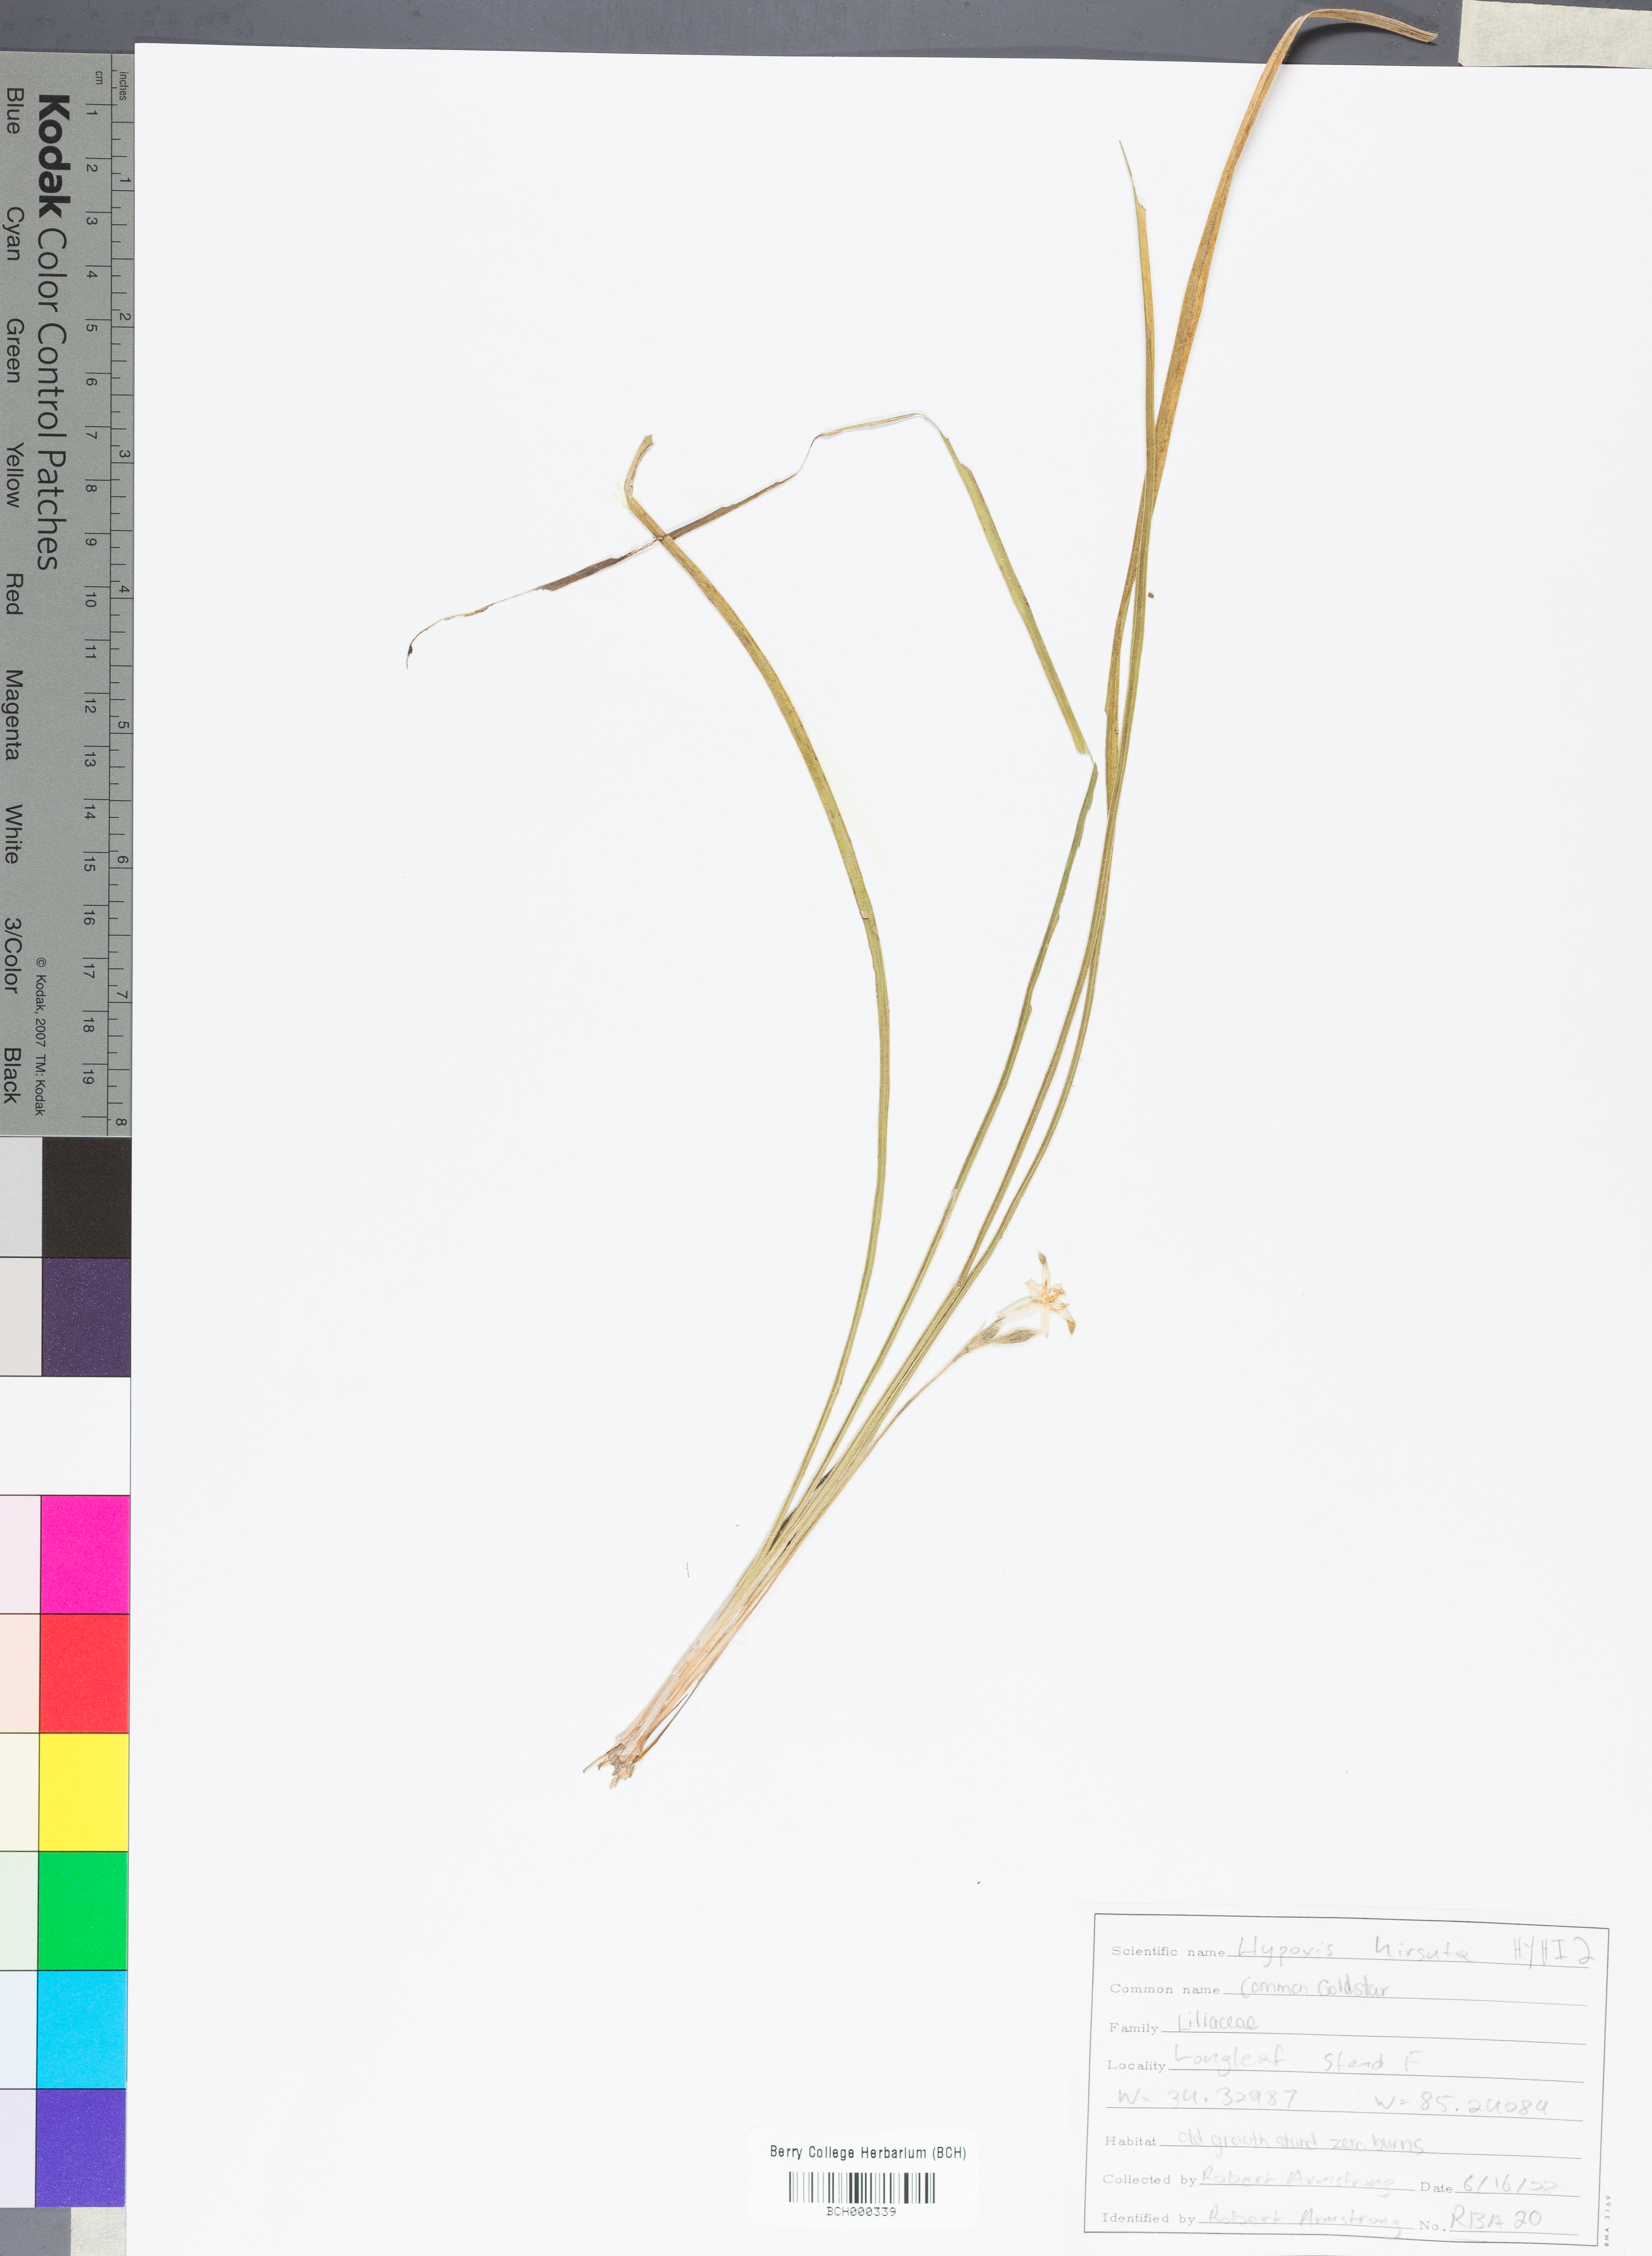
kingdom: Plantae
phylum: Tracheophyta
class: Liliopsida
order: Asparagales
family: Hypoxidaceae
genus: Hypoxis
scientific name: Hypoxis hirsuta
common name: Common goldstar
